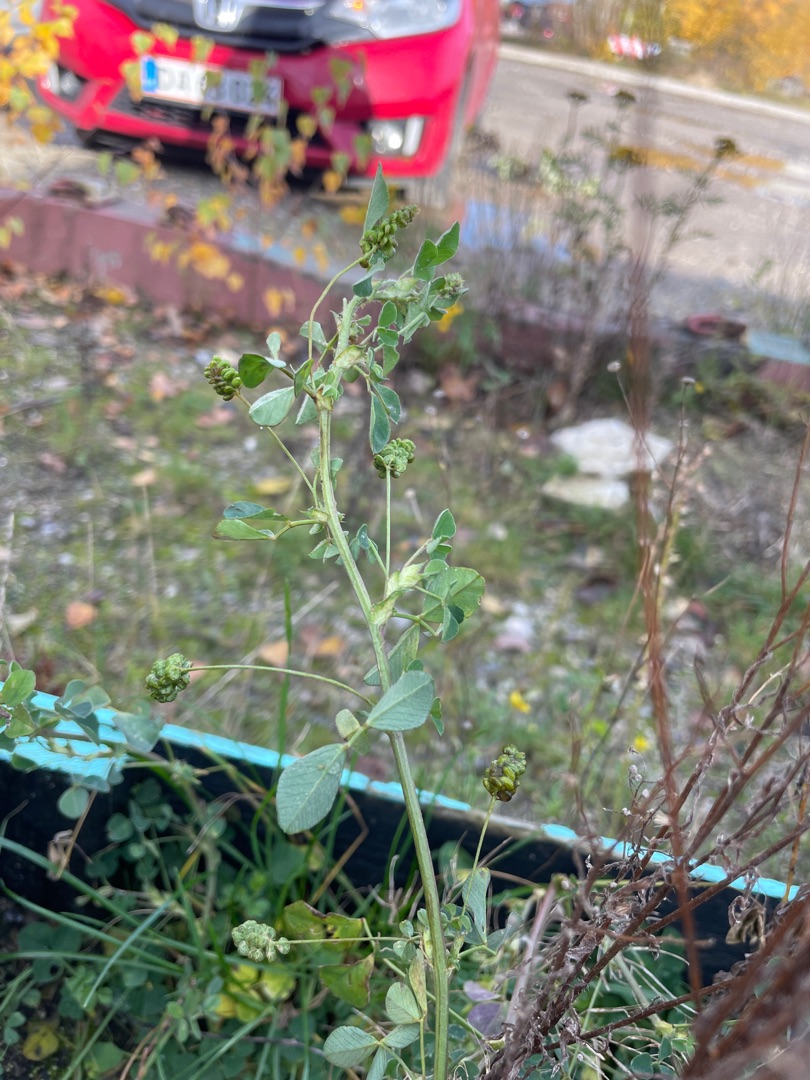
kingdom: Plantae
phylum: Tracheophyta
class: Magnoliopsida
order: Fabales
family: Fabaceae
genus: Medicago
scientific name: Medicago lupulina
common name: Humle-sneglebælg
